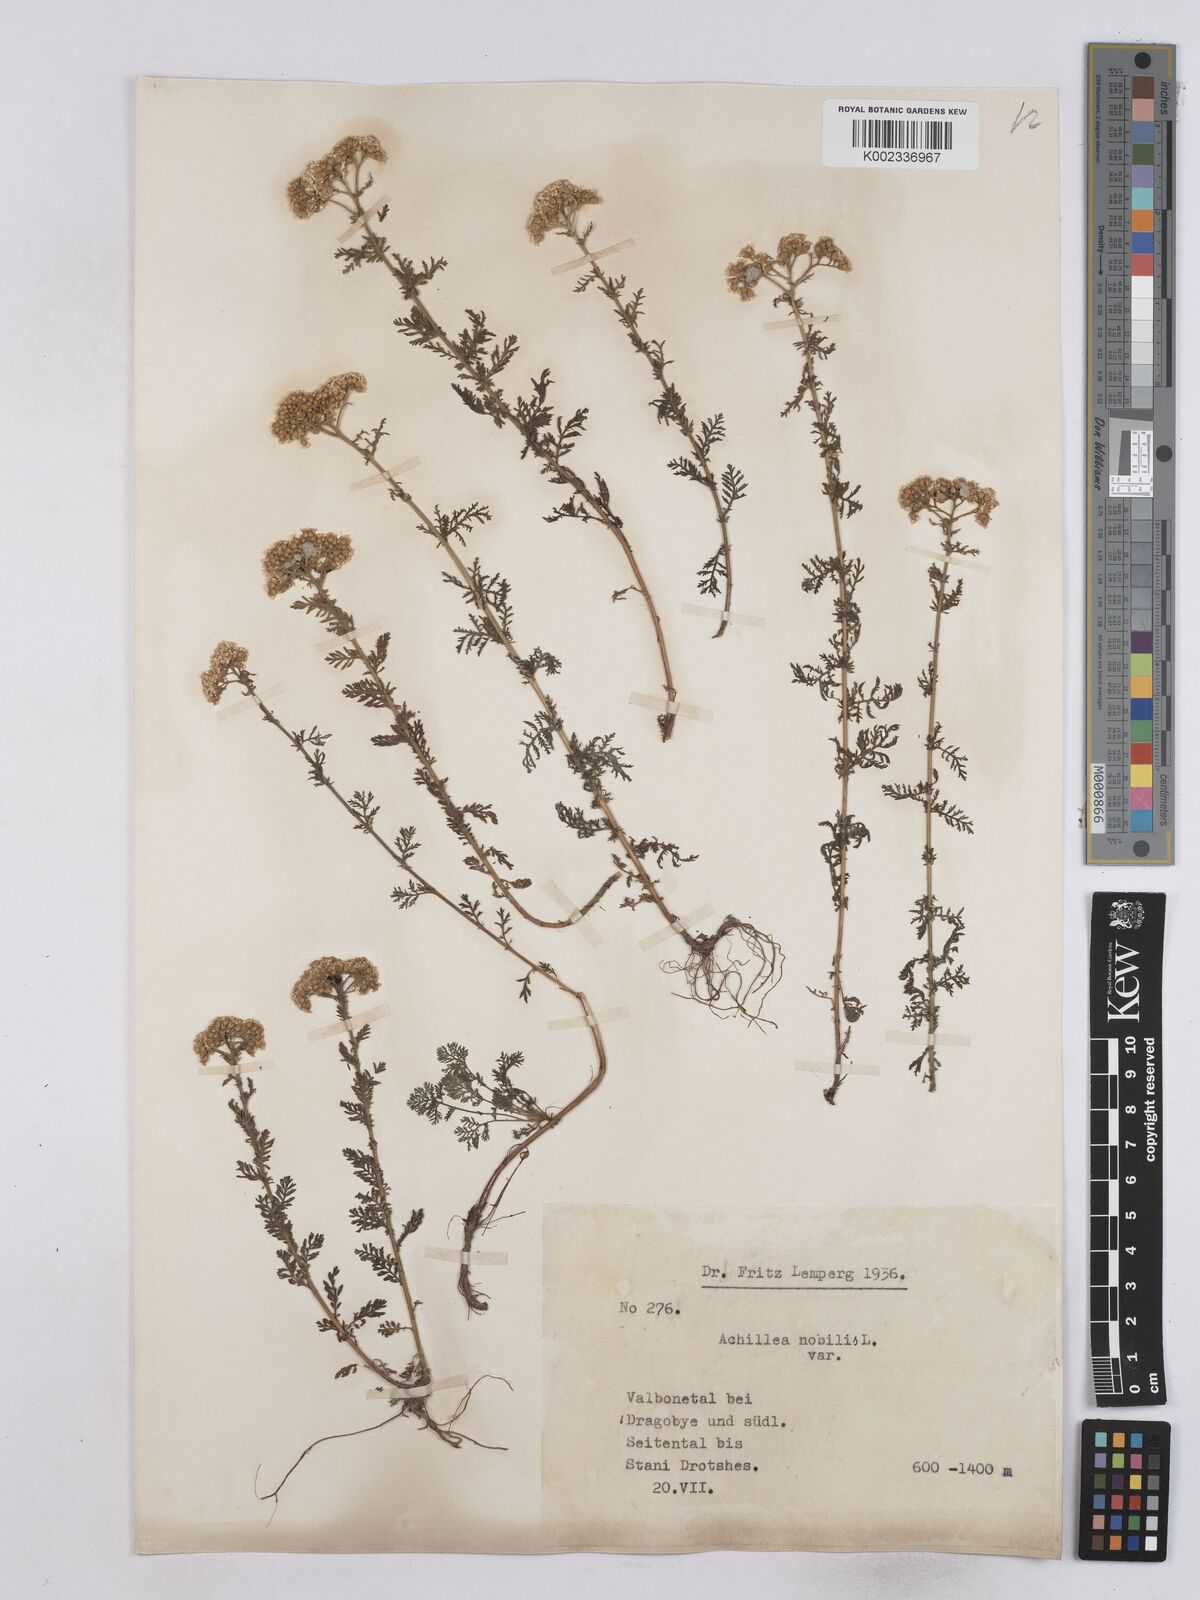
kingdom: Plantae
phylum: Tracheophyta
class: Magnoliopsida
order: Asterales
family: Asteraceae
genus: Achillea
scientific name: Achillea nobilis
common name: Noble yarrow
